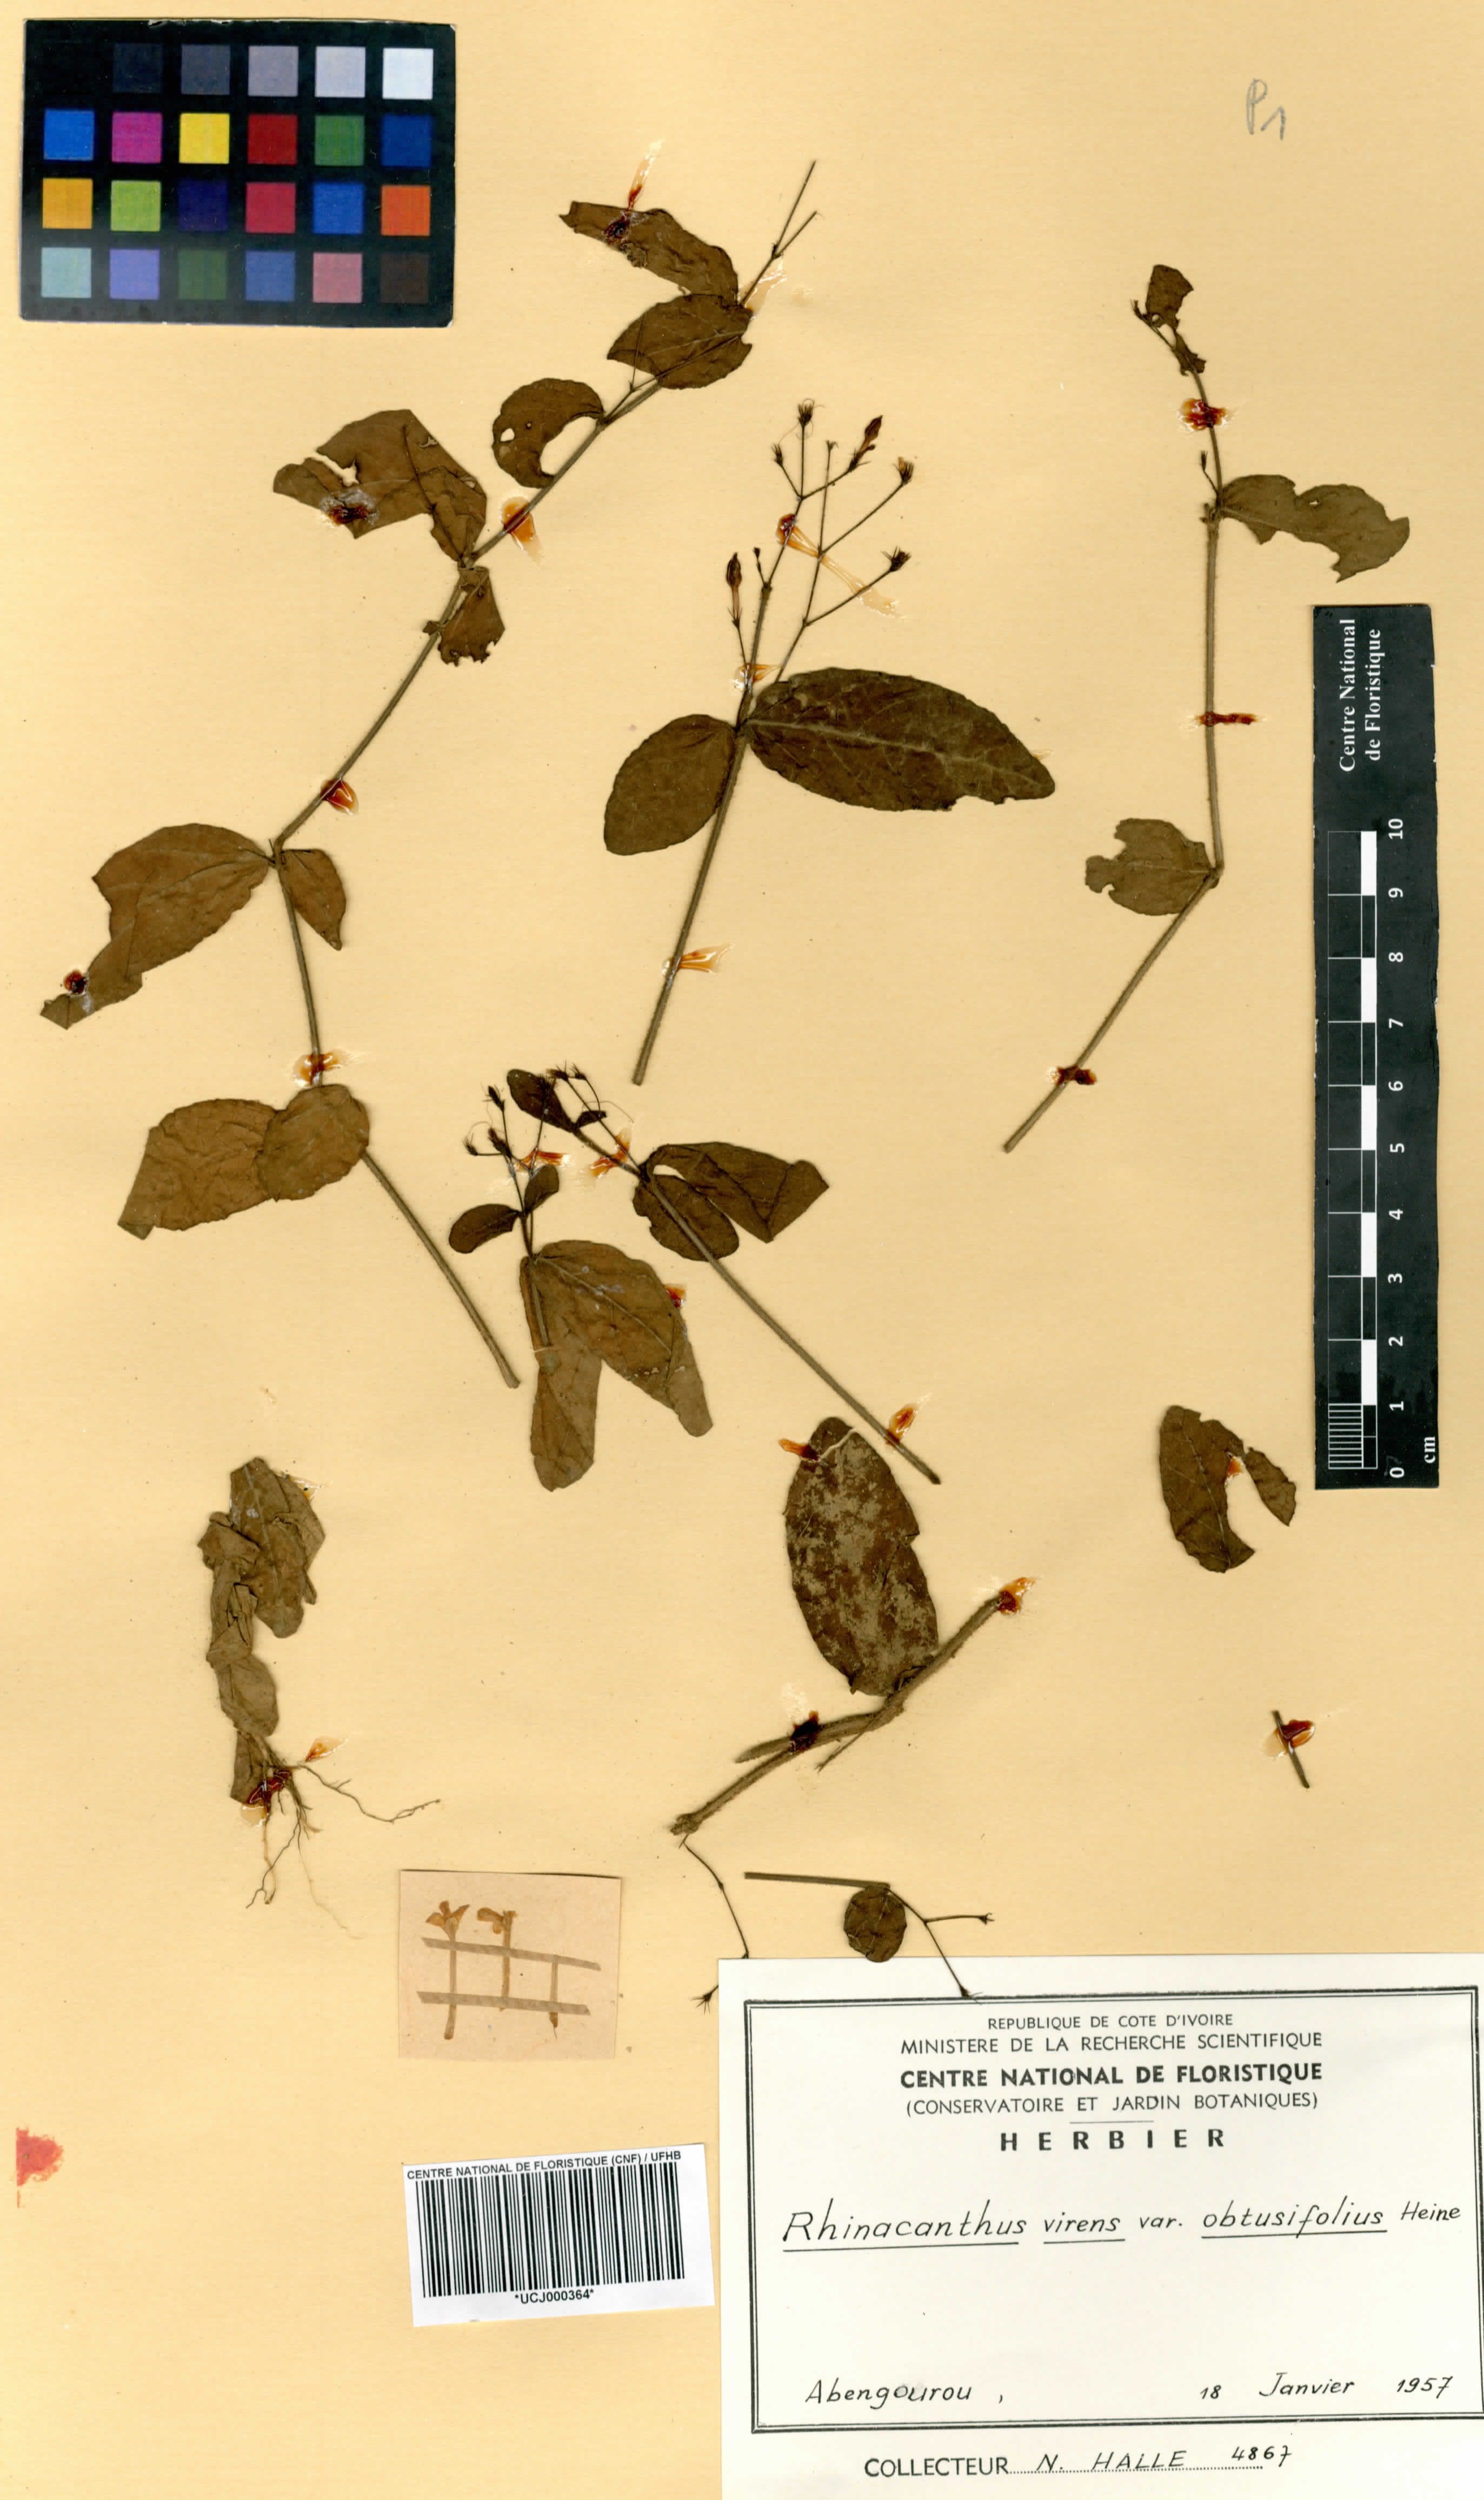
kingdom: Plantae
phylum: Tracheophyta
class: Magnoliopsida
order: Lamiales
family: Acanthaceae
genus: Rhinacanthus
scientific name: Rhinacanthus obtusifolius
